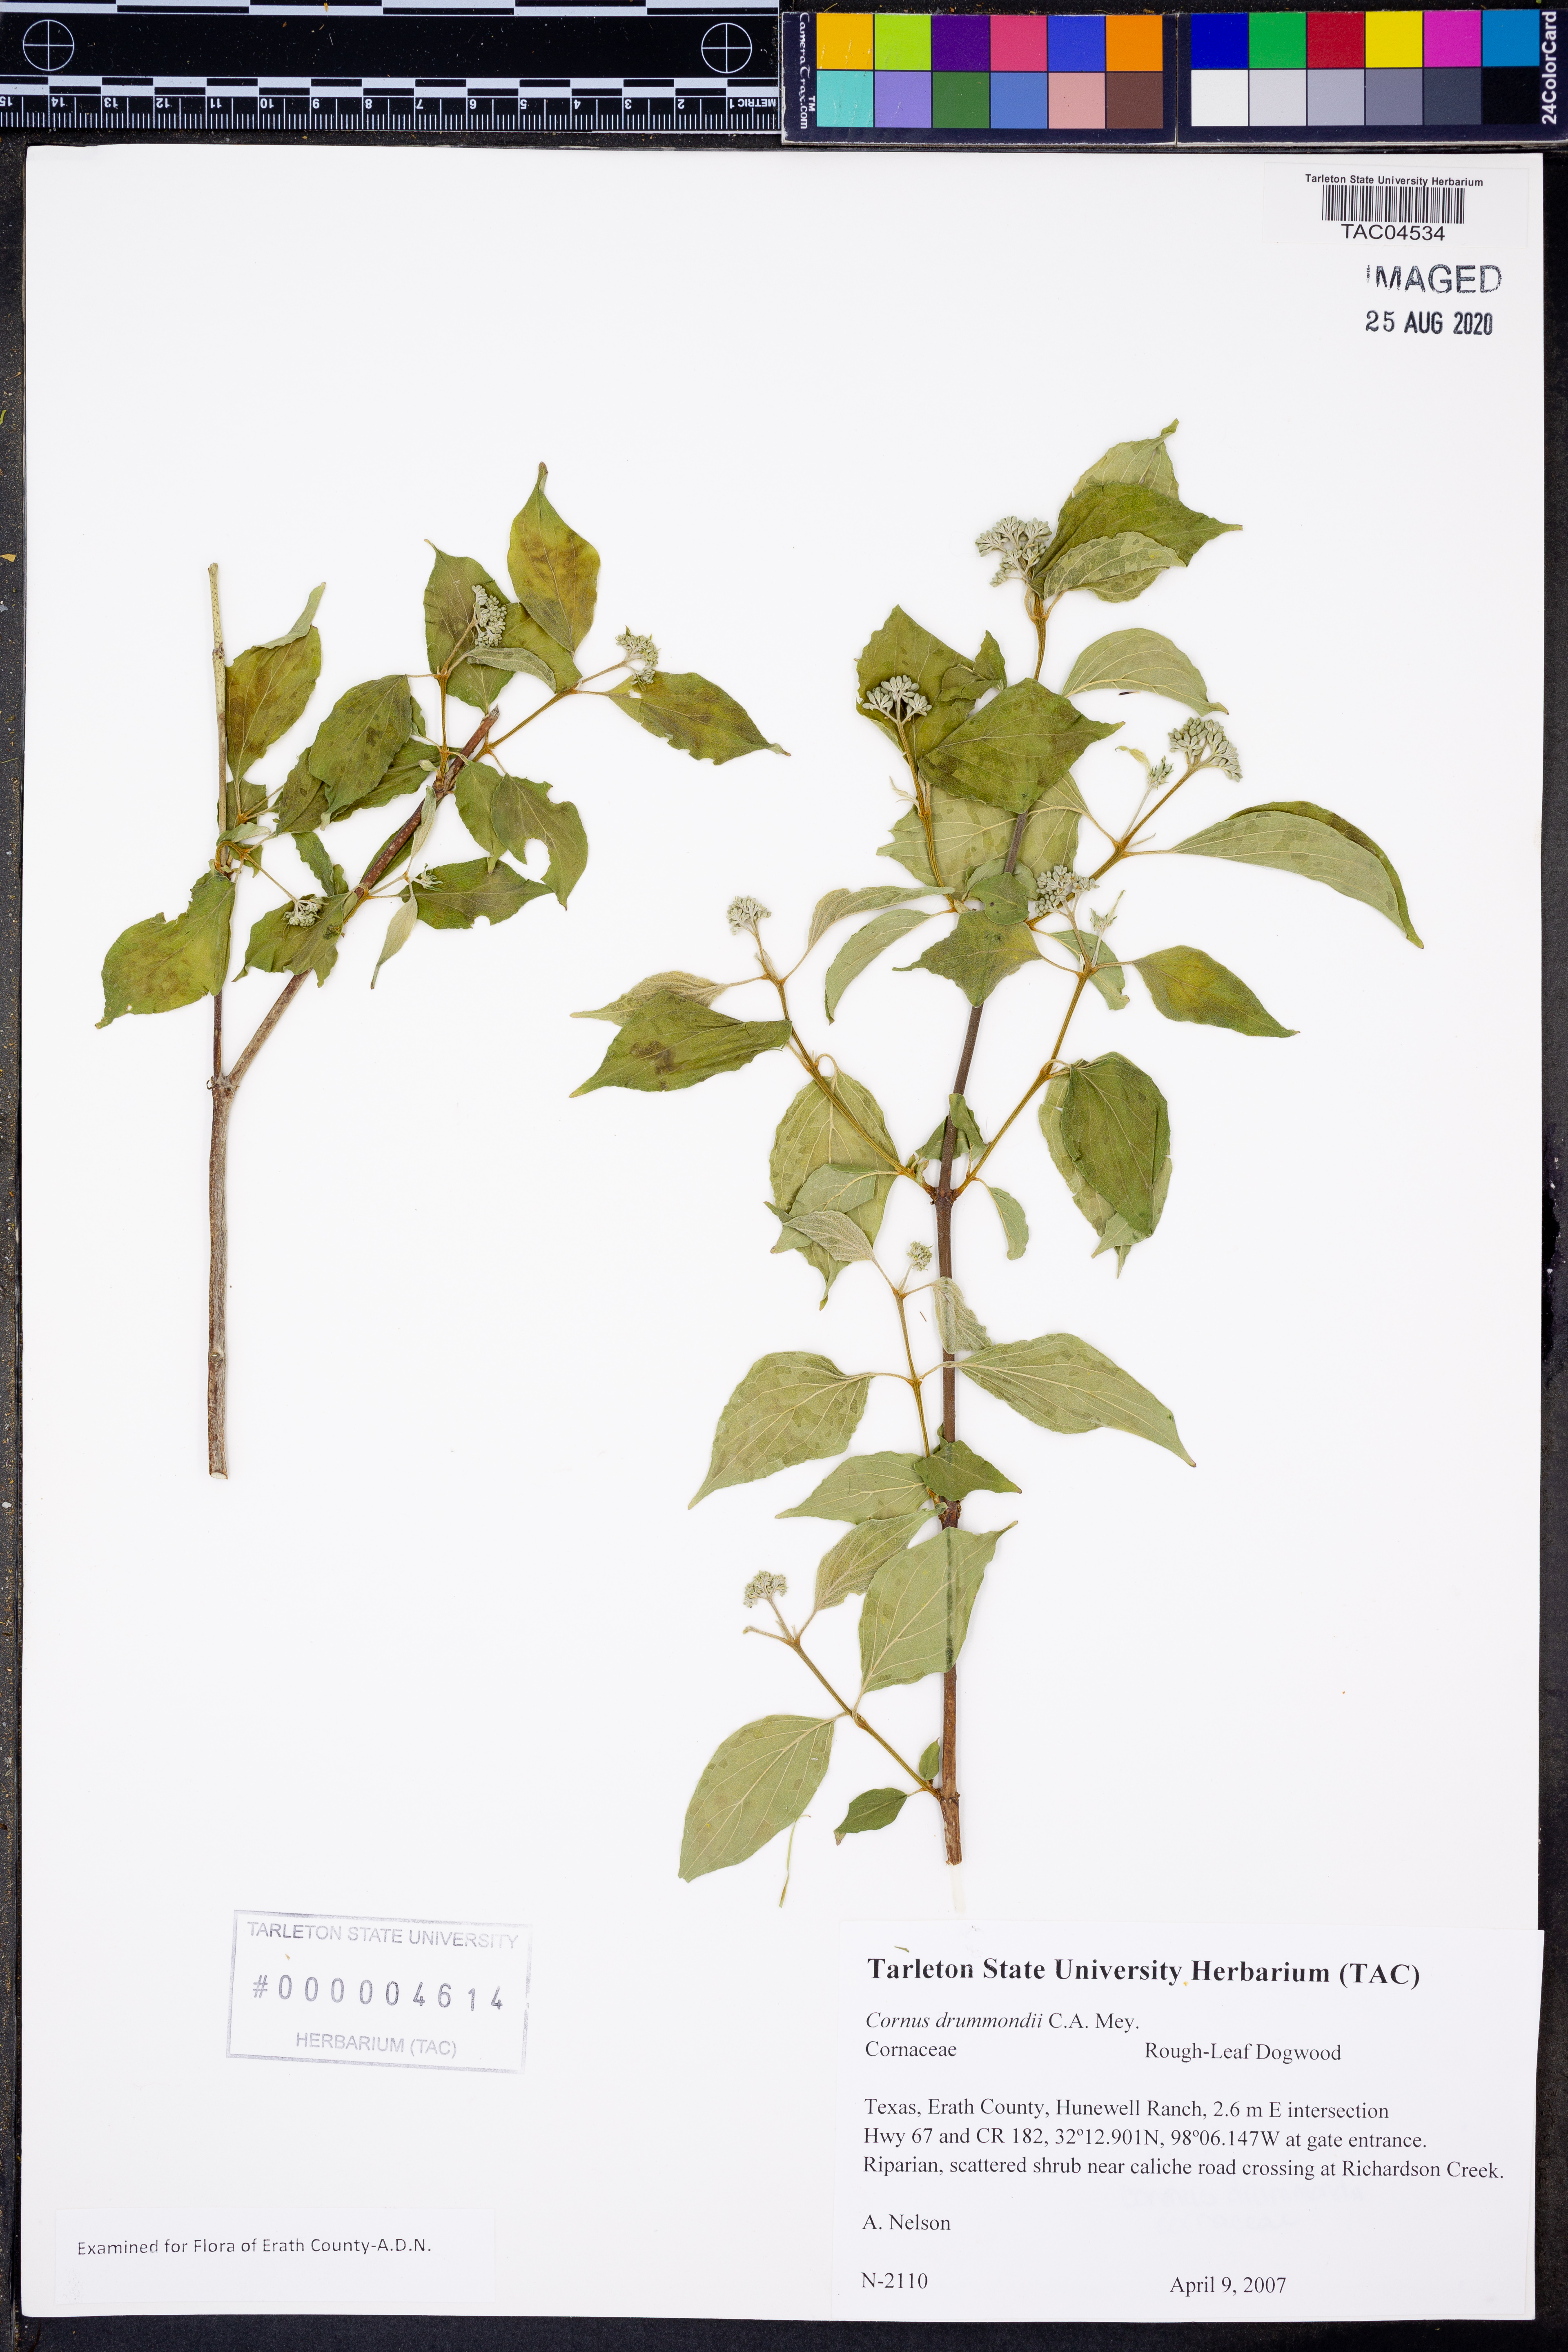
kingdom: Plantae
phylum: Tracheophyta
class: Magnoliopsida
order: Cornales
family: Cornaceae
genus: Cornus
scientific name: Cornus drummondii
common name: Rough-leaf dogwood
